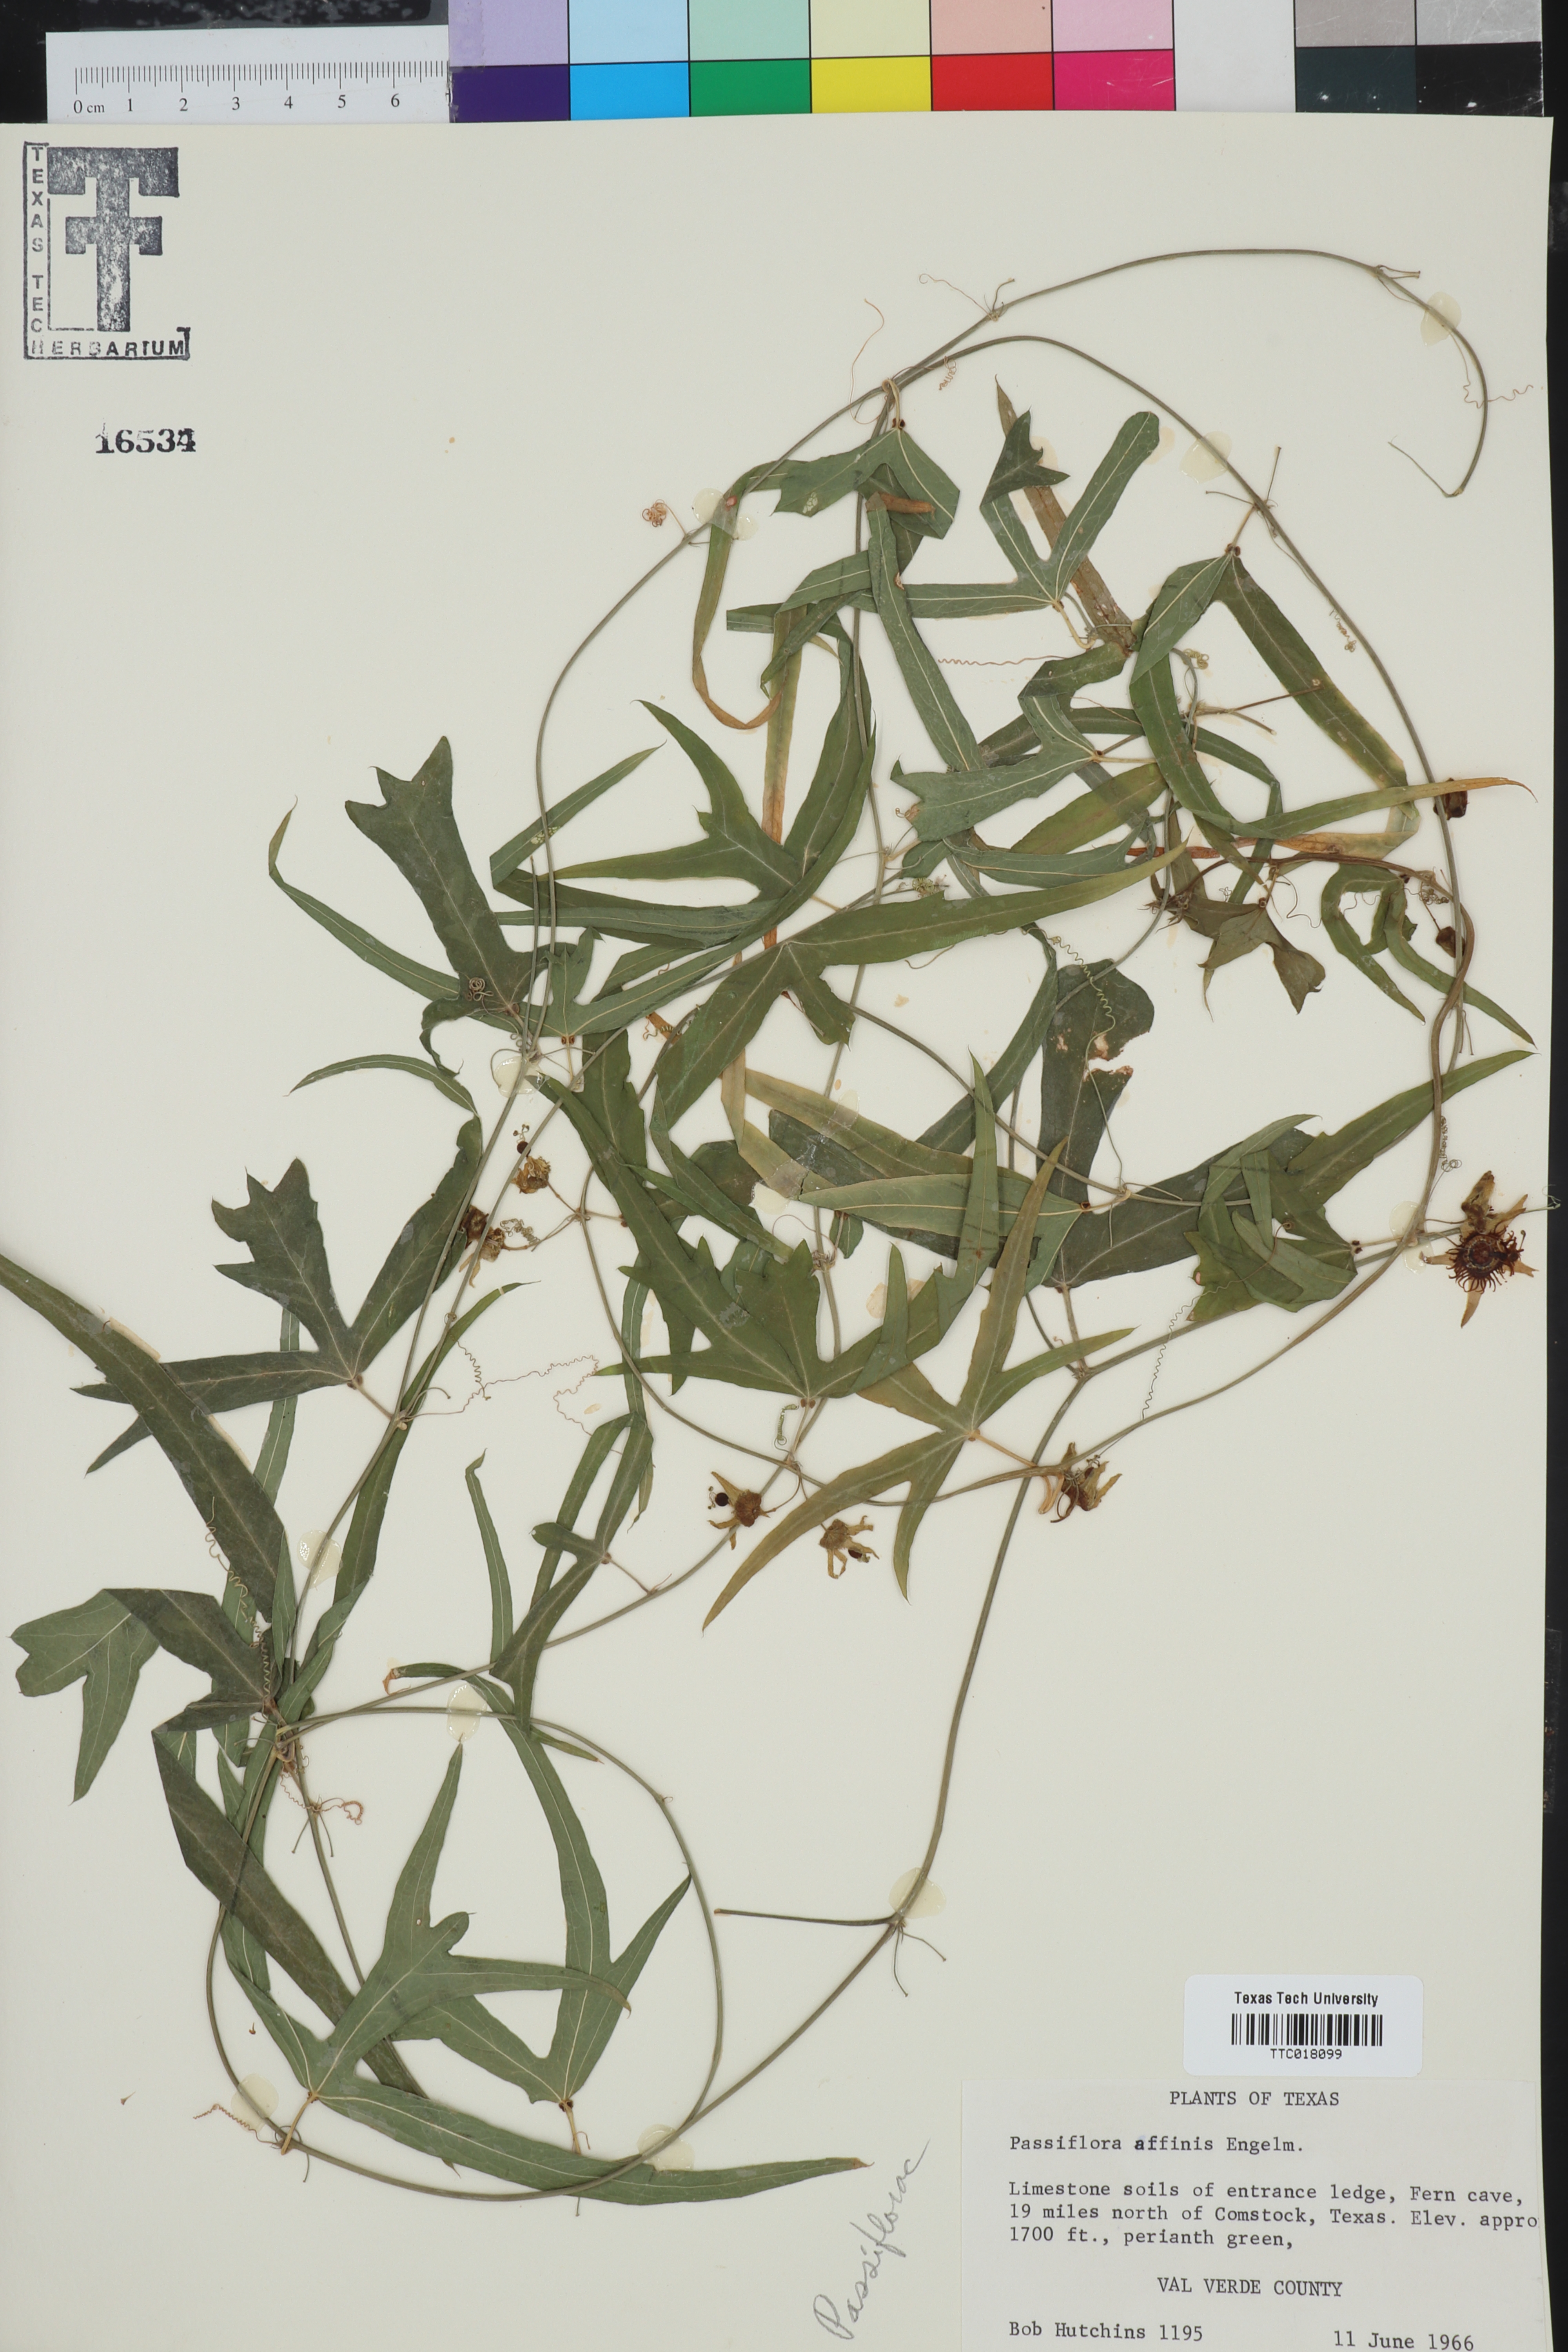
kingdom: Plantae
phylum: Tracheophyta
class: Magnoliopsida
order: Malpighiales
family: Passifloraceae
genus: Passiflora
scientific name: Passiflora affinis
